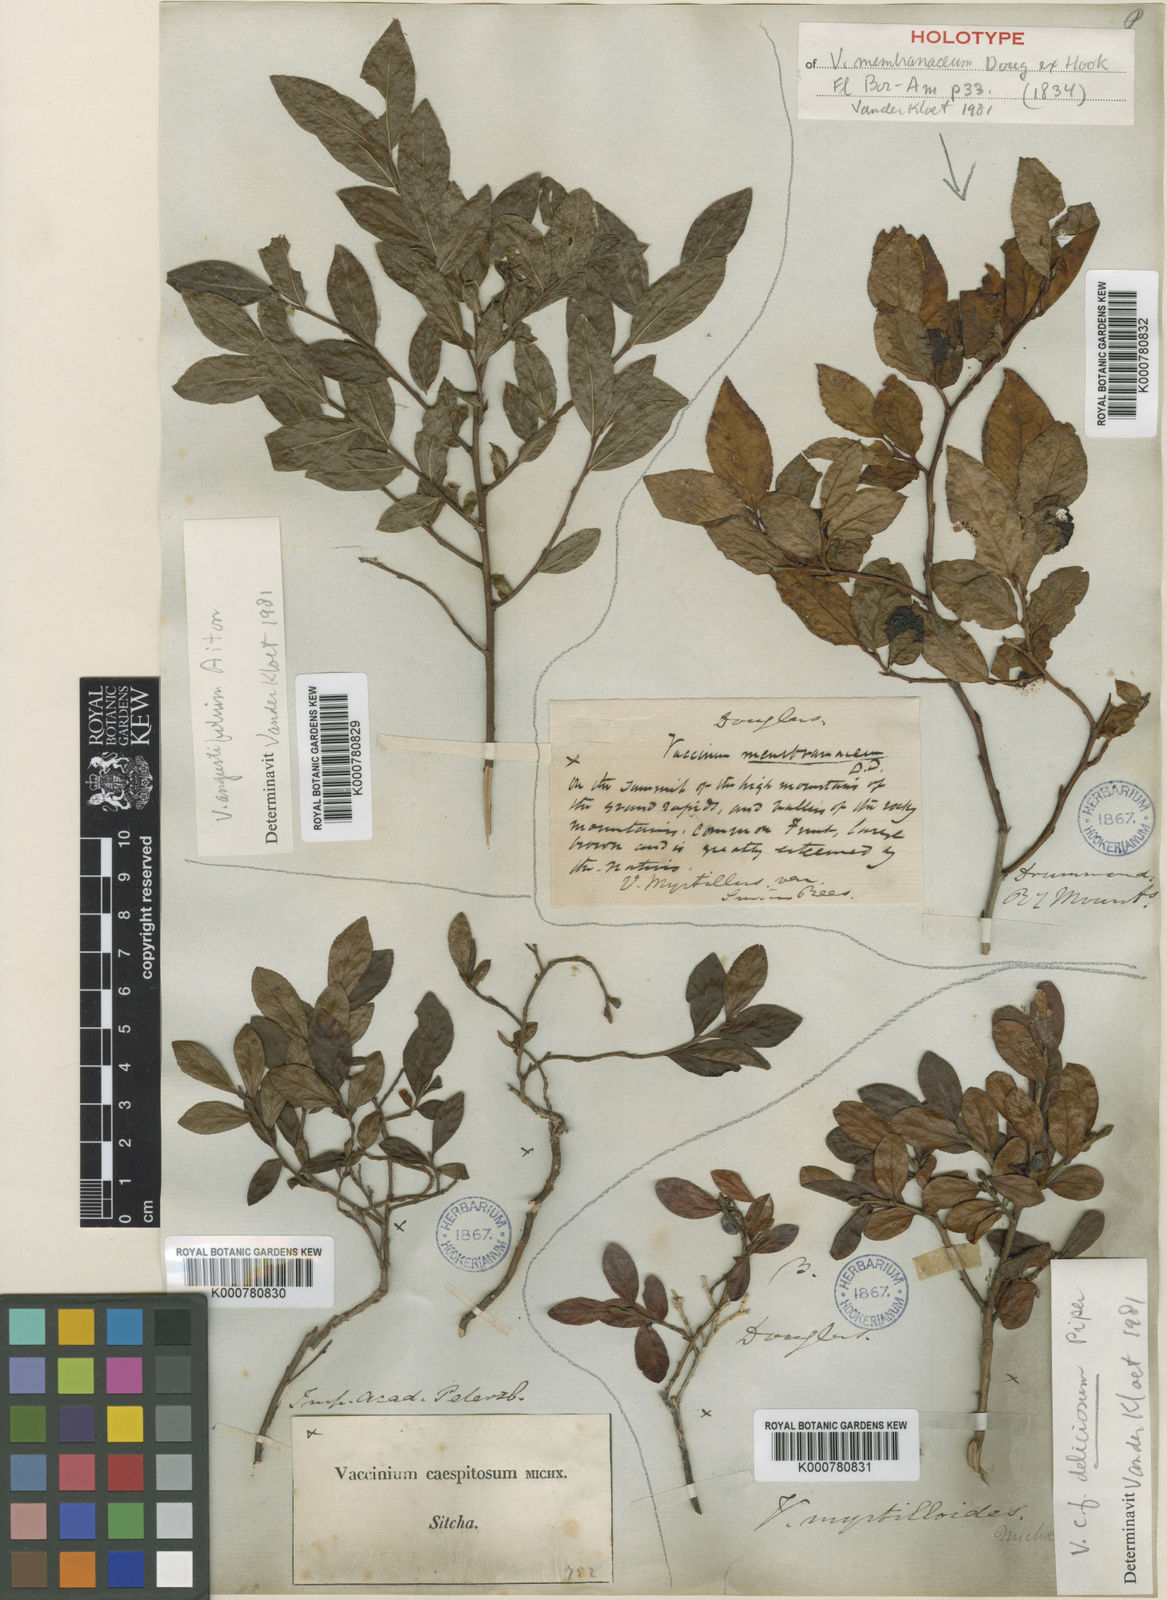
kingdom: Plantae
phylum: Tracheophyta
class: Magnoliopsida
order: Ericales
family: Ericaceae
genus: Vaccinium
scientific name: Vaccinium
